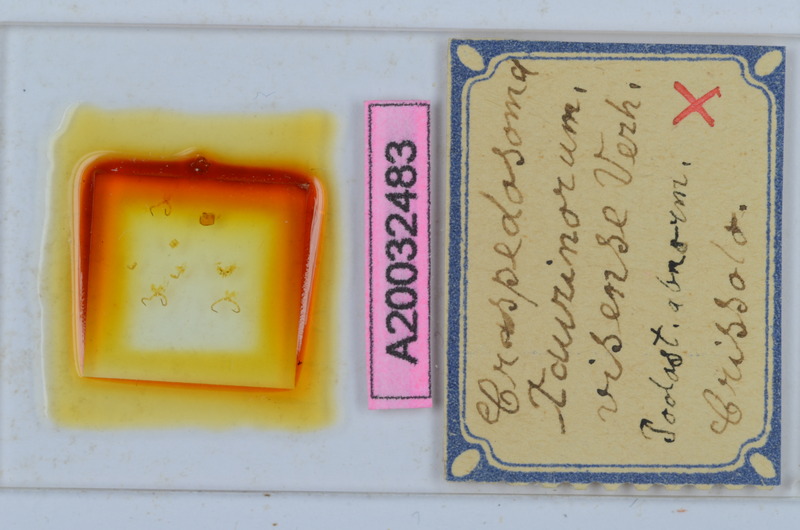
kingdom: Animalia
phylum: Arthropoda
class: Diplopoda
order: Chordeumatida
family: Craspedosomatidae
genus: Craspedosoma
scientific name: Craspedosoma taurinorum
